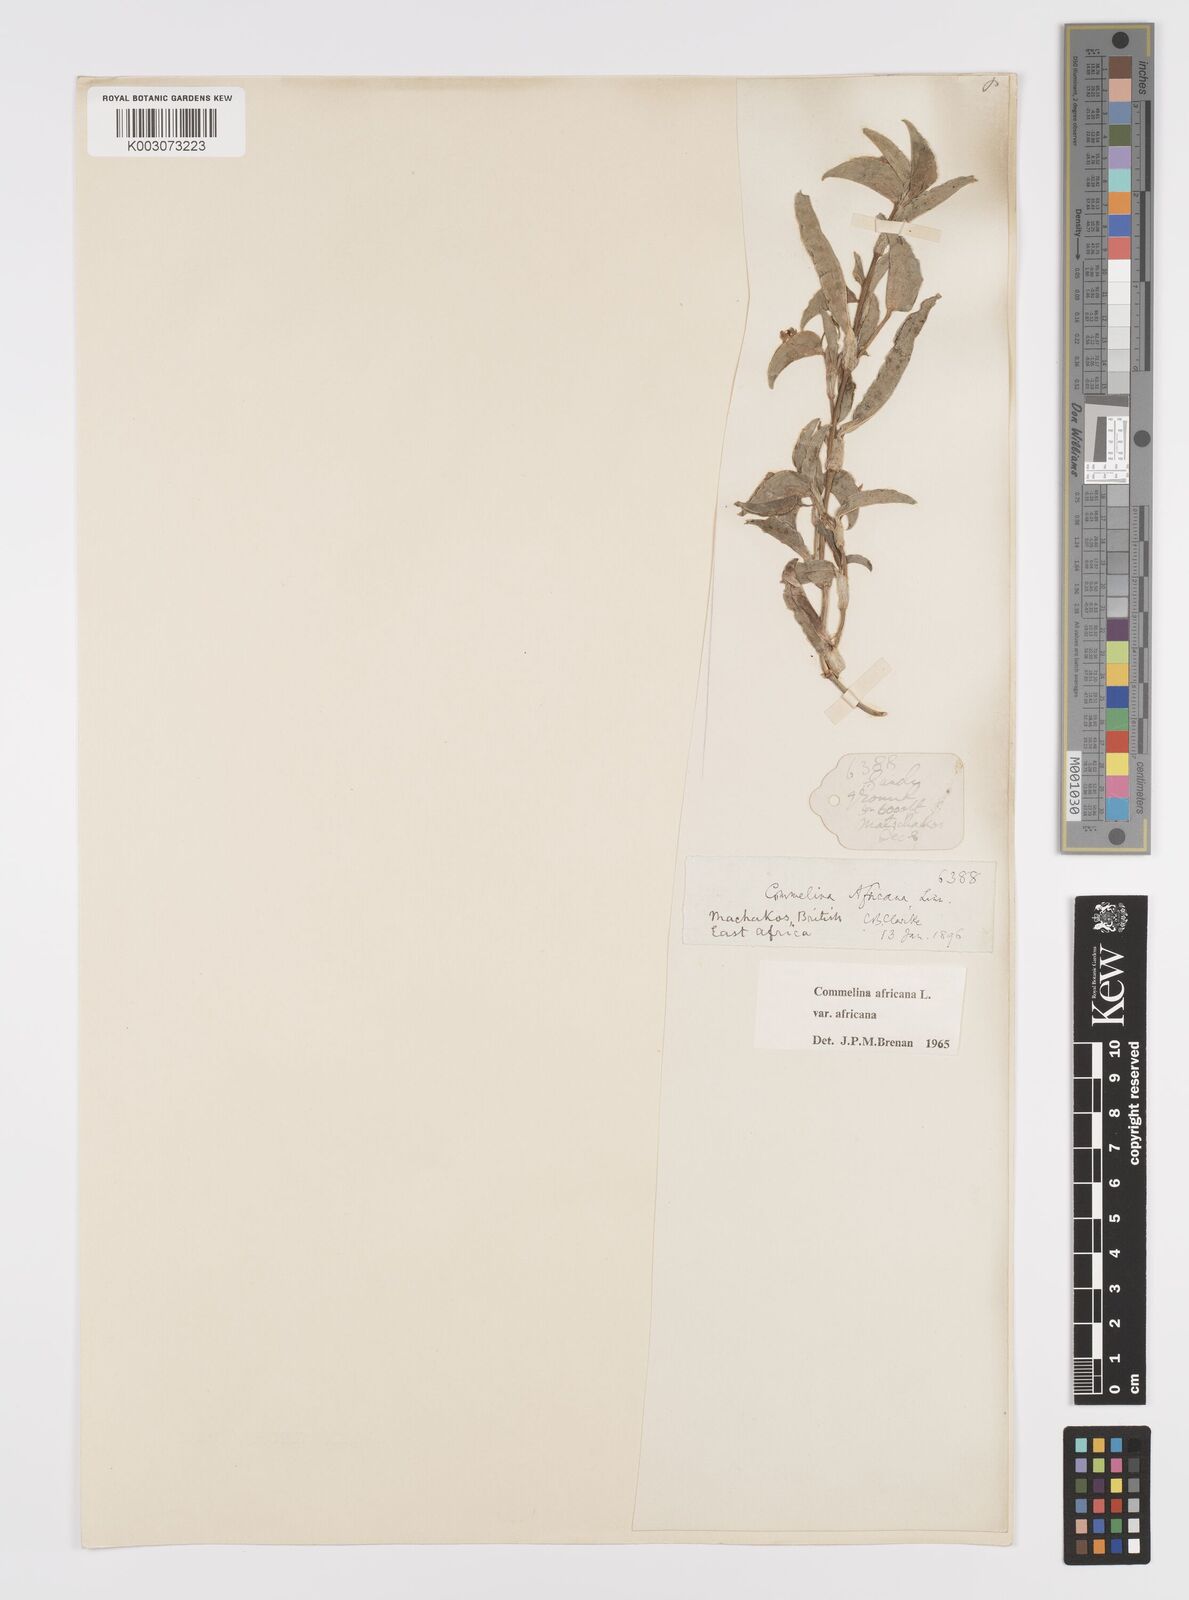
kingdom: Plantae
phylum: Tracheophyta
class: Liliopsida
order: Commelinales
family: Commelinaceae
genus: Commelina
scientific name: Commelina africana
